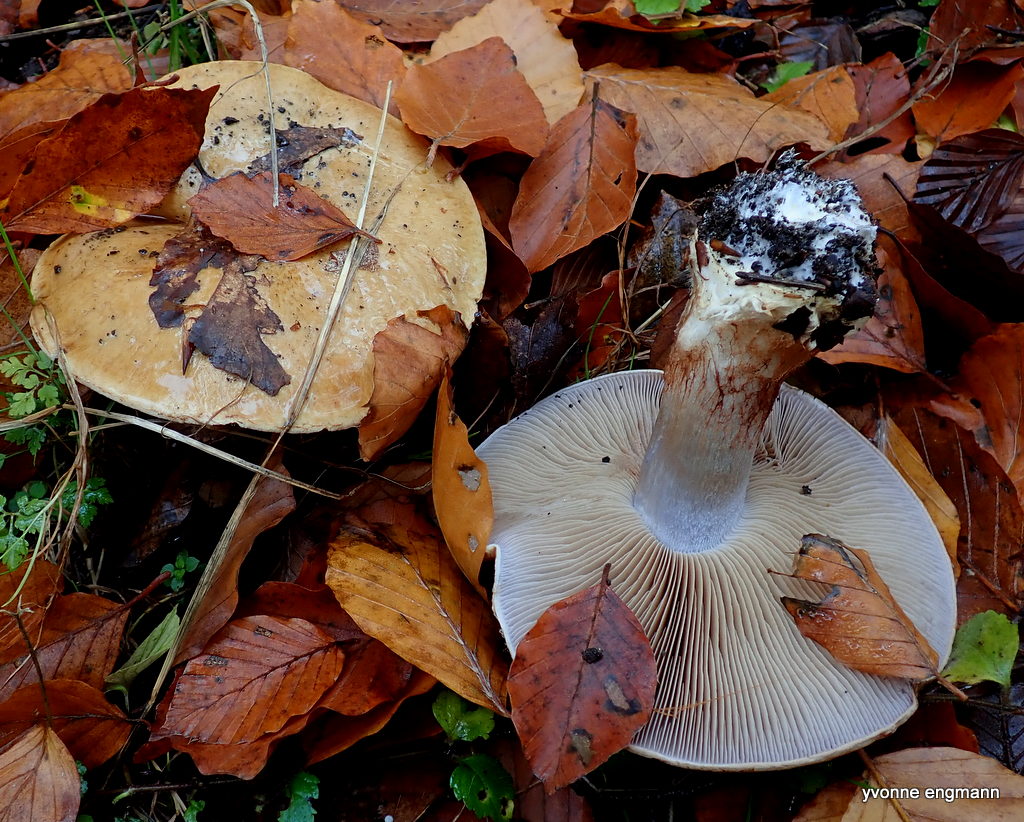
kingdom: Fungi
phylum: Basidiomycota
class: Agaricomycetes
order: Agaricales
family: Cortinariaceae
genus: Cortinarius
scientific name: Cortinarius anserinus
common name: bøge-slørhat
